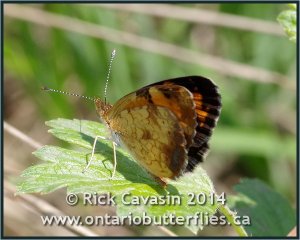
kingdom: Animalia
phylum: Arthropoda
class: Insecta
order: Lepidoptera
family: Nymphalidae
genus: Phyciodes
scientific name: Phyciodes tharos
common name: Northern Crescent
